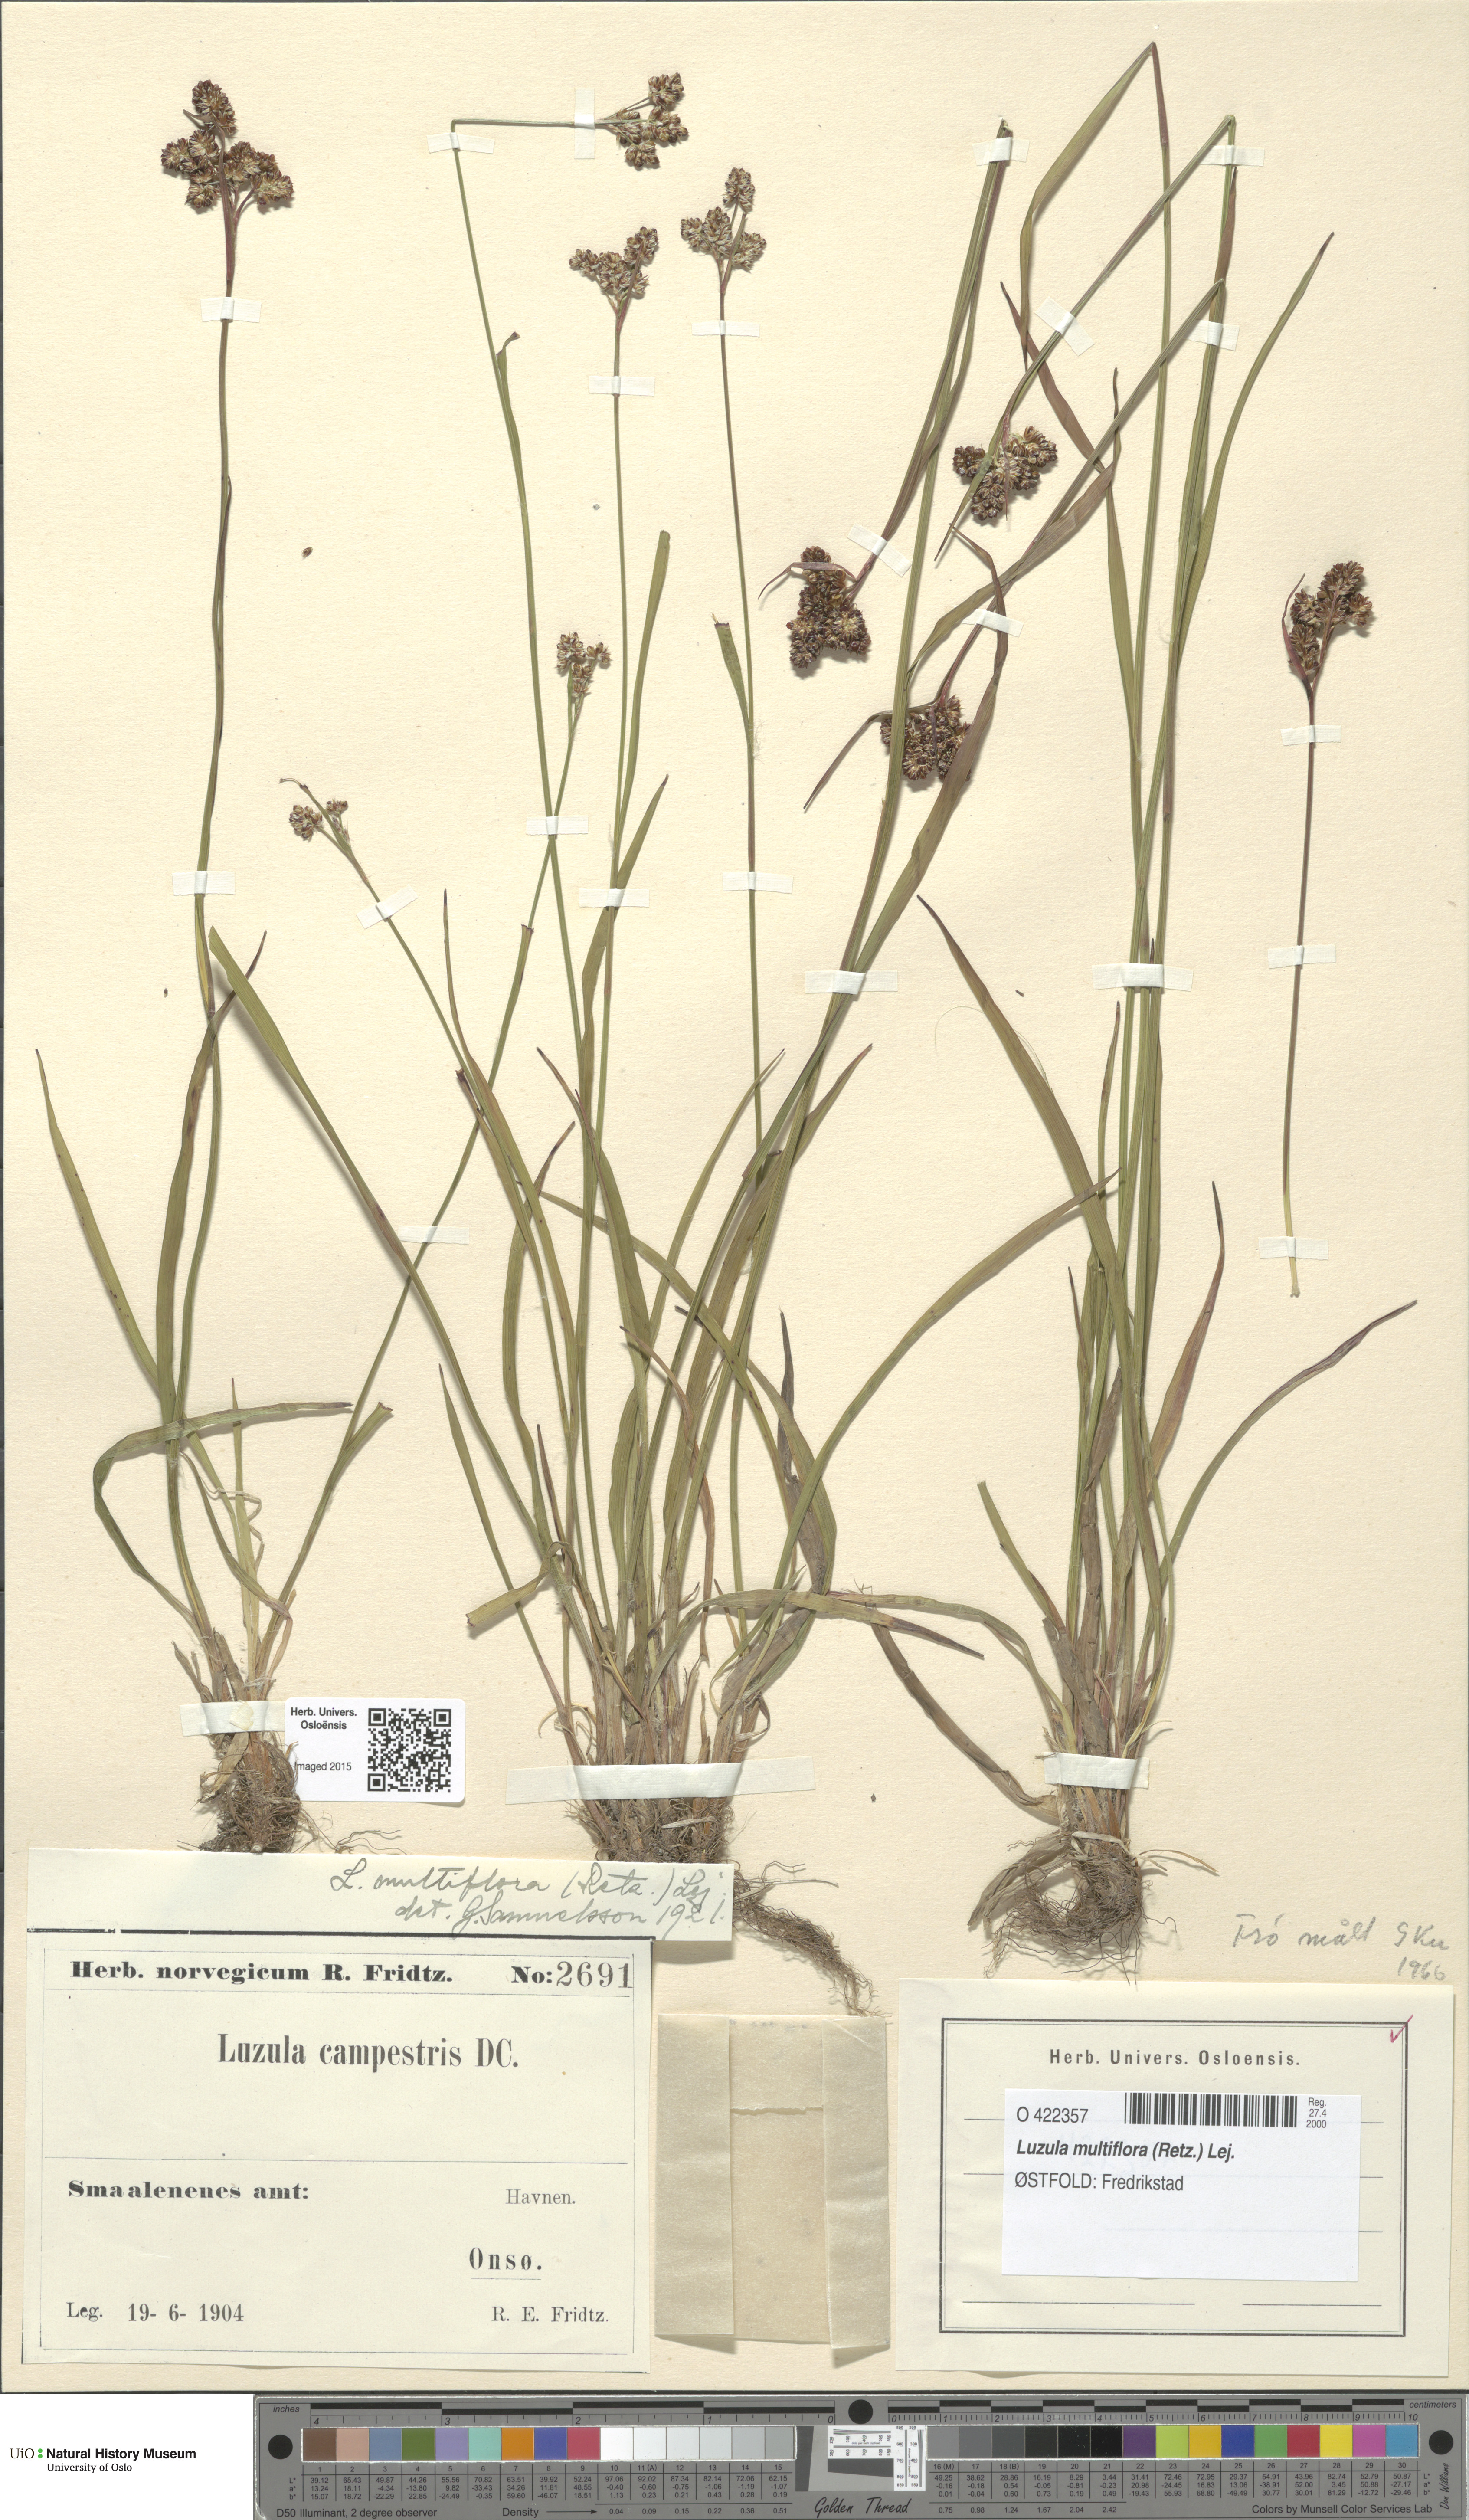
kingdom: Plantae
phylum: Tracheophyta
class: Liliopsida
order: Poales
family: Juncaceae
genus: Luzula
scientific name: Luzula multiflora
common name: Heath wood-rush
